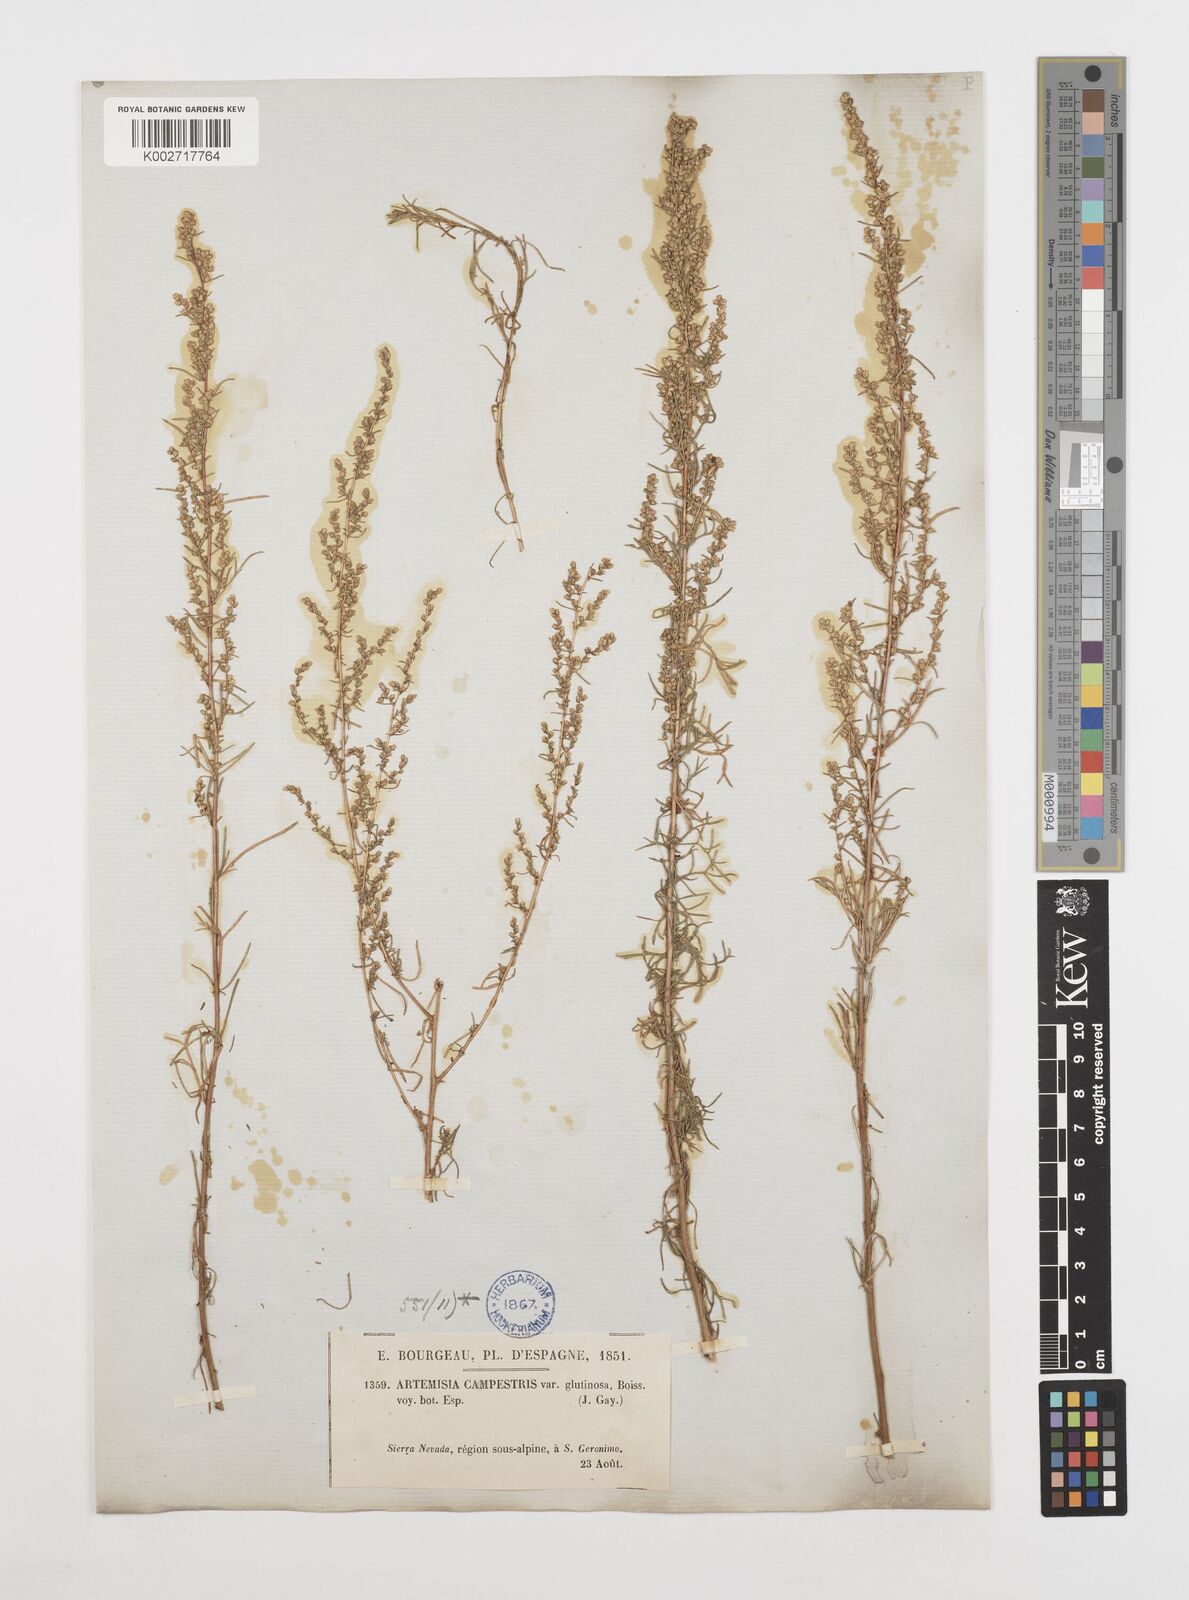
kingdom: Plantae
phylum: Tracheophyta
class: Magnoliopsida
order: Asterales
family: Asteraceae
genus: Artemisia
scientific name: Artemisia campestris
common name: Field wormwood
